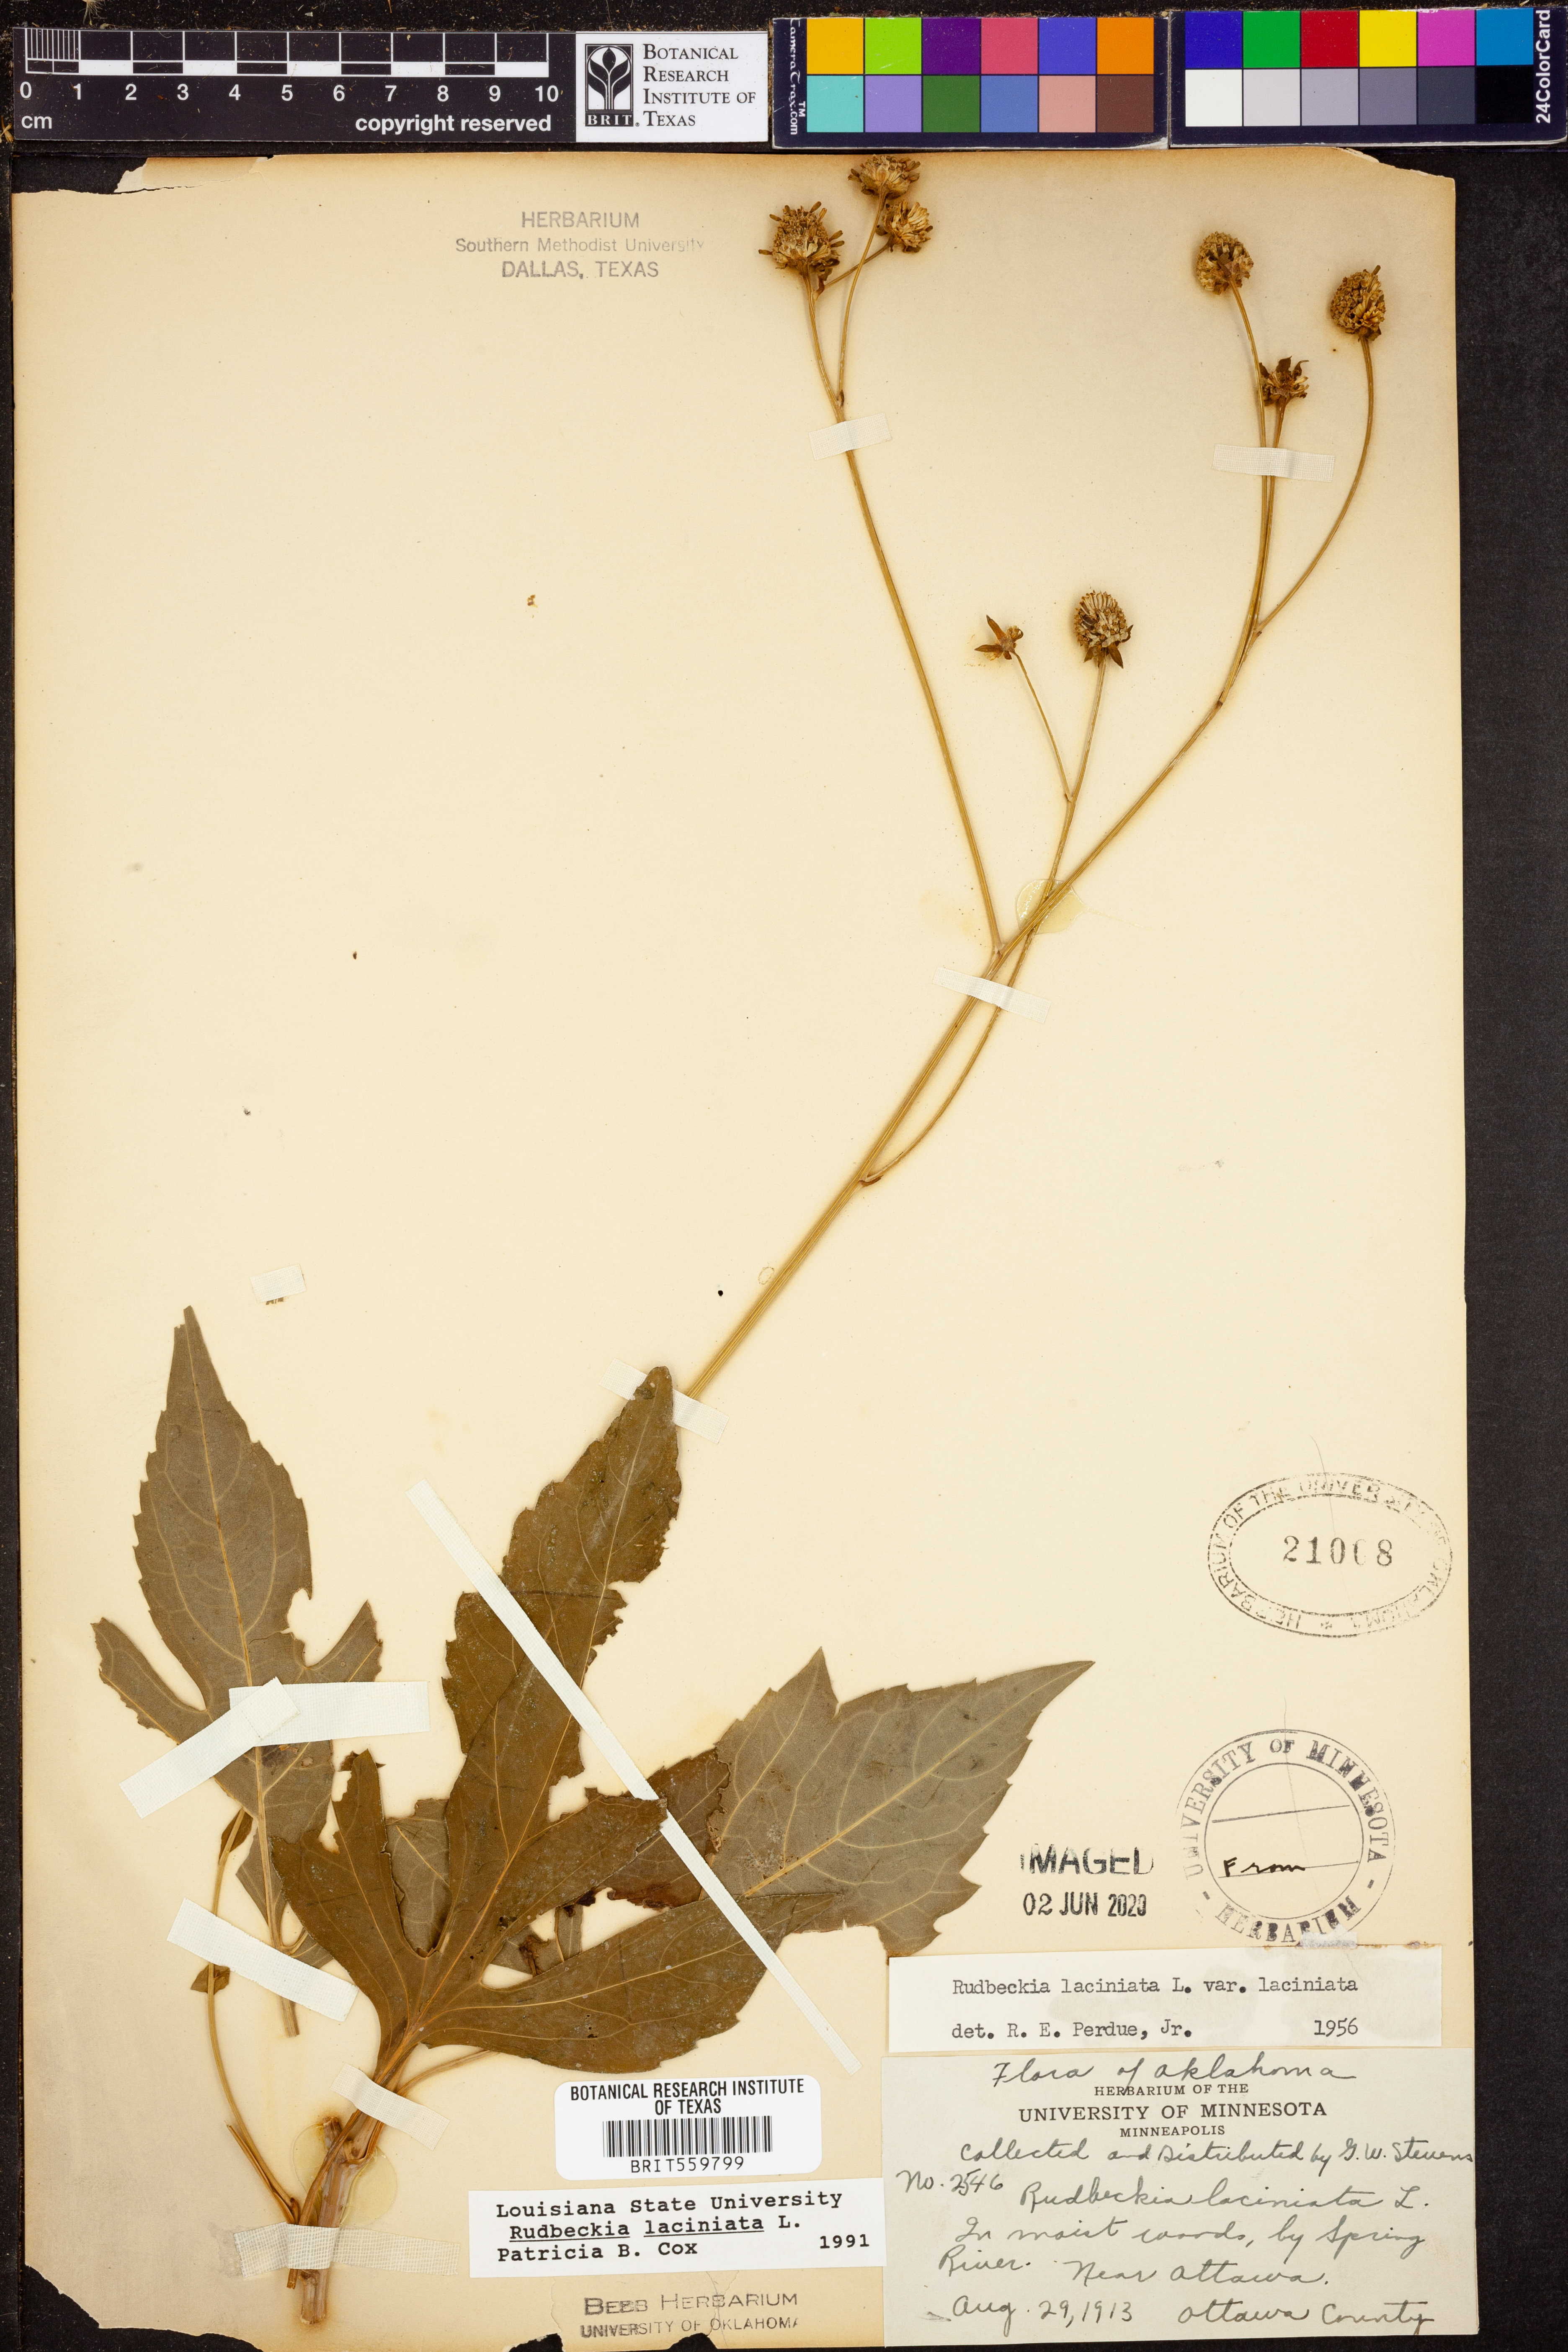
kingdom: Plantae
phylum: Tracheophyta
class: Magnoliopsida
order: Asterales
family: Asteraceae
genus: Rudbeckia
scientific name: Rudbeckia laciniata
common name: Coneflower
